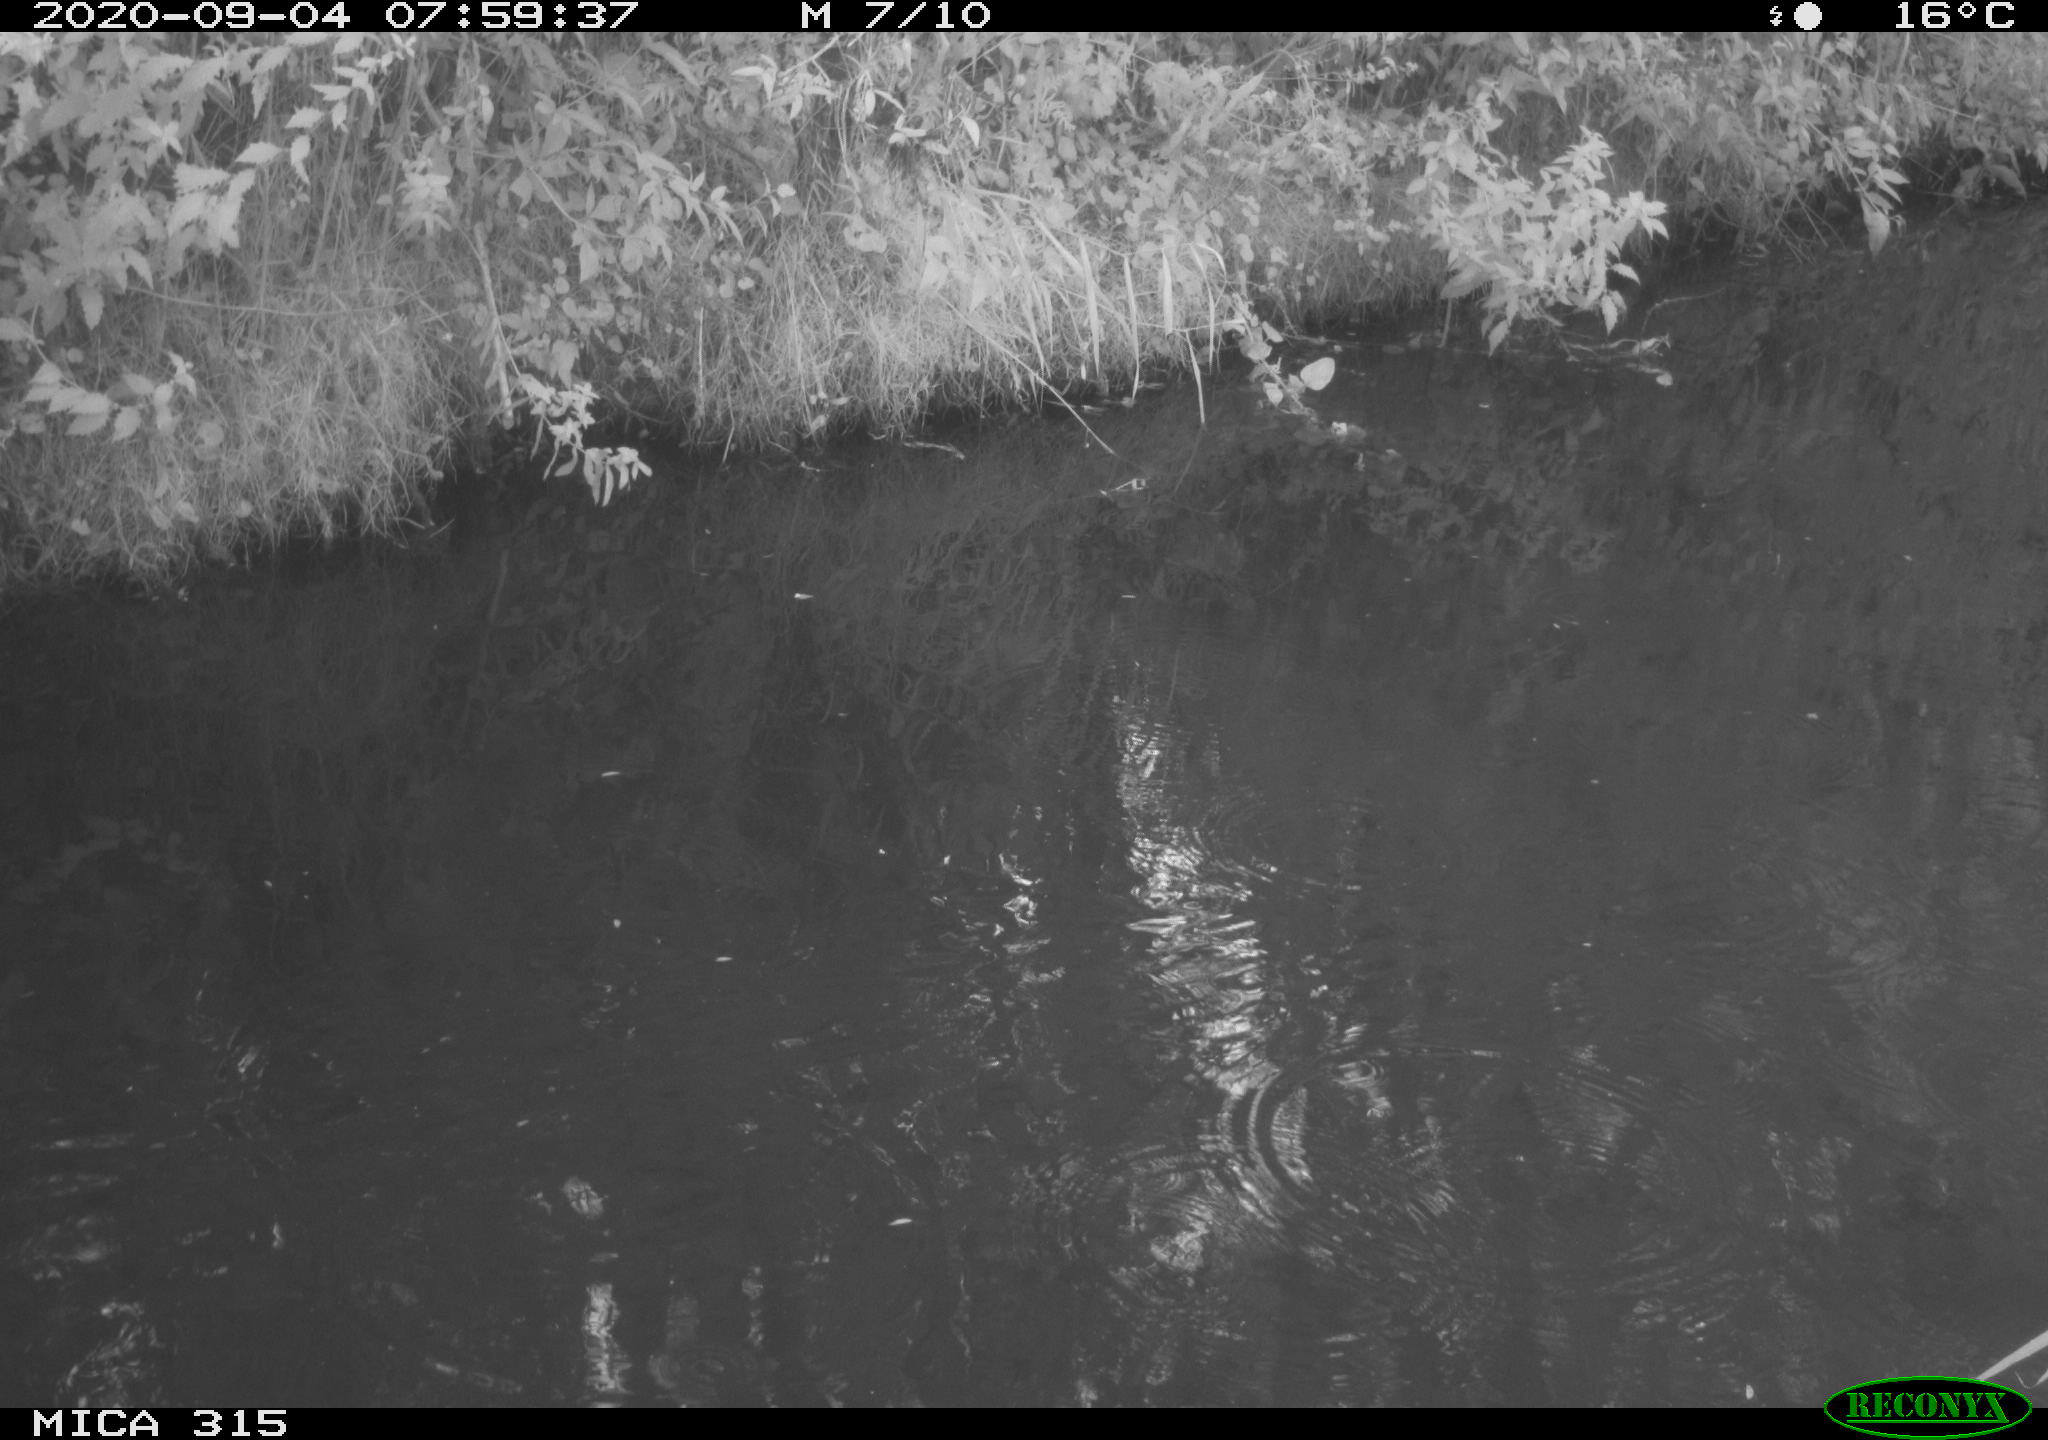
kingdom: Animalia
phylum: Chordata
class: Aves
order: Anseriformes
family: Anatidae
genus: Anas
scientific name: Anas platyrhynchos
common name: Mallard
